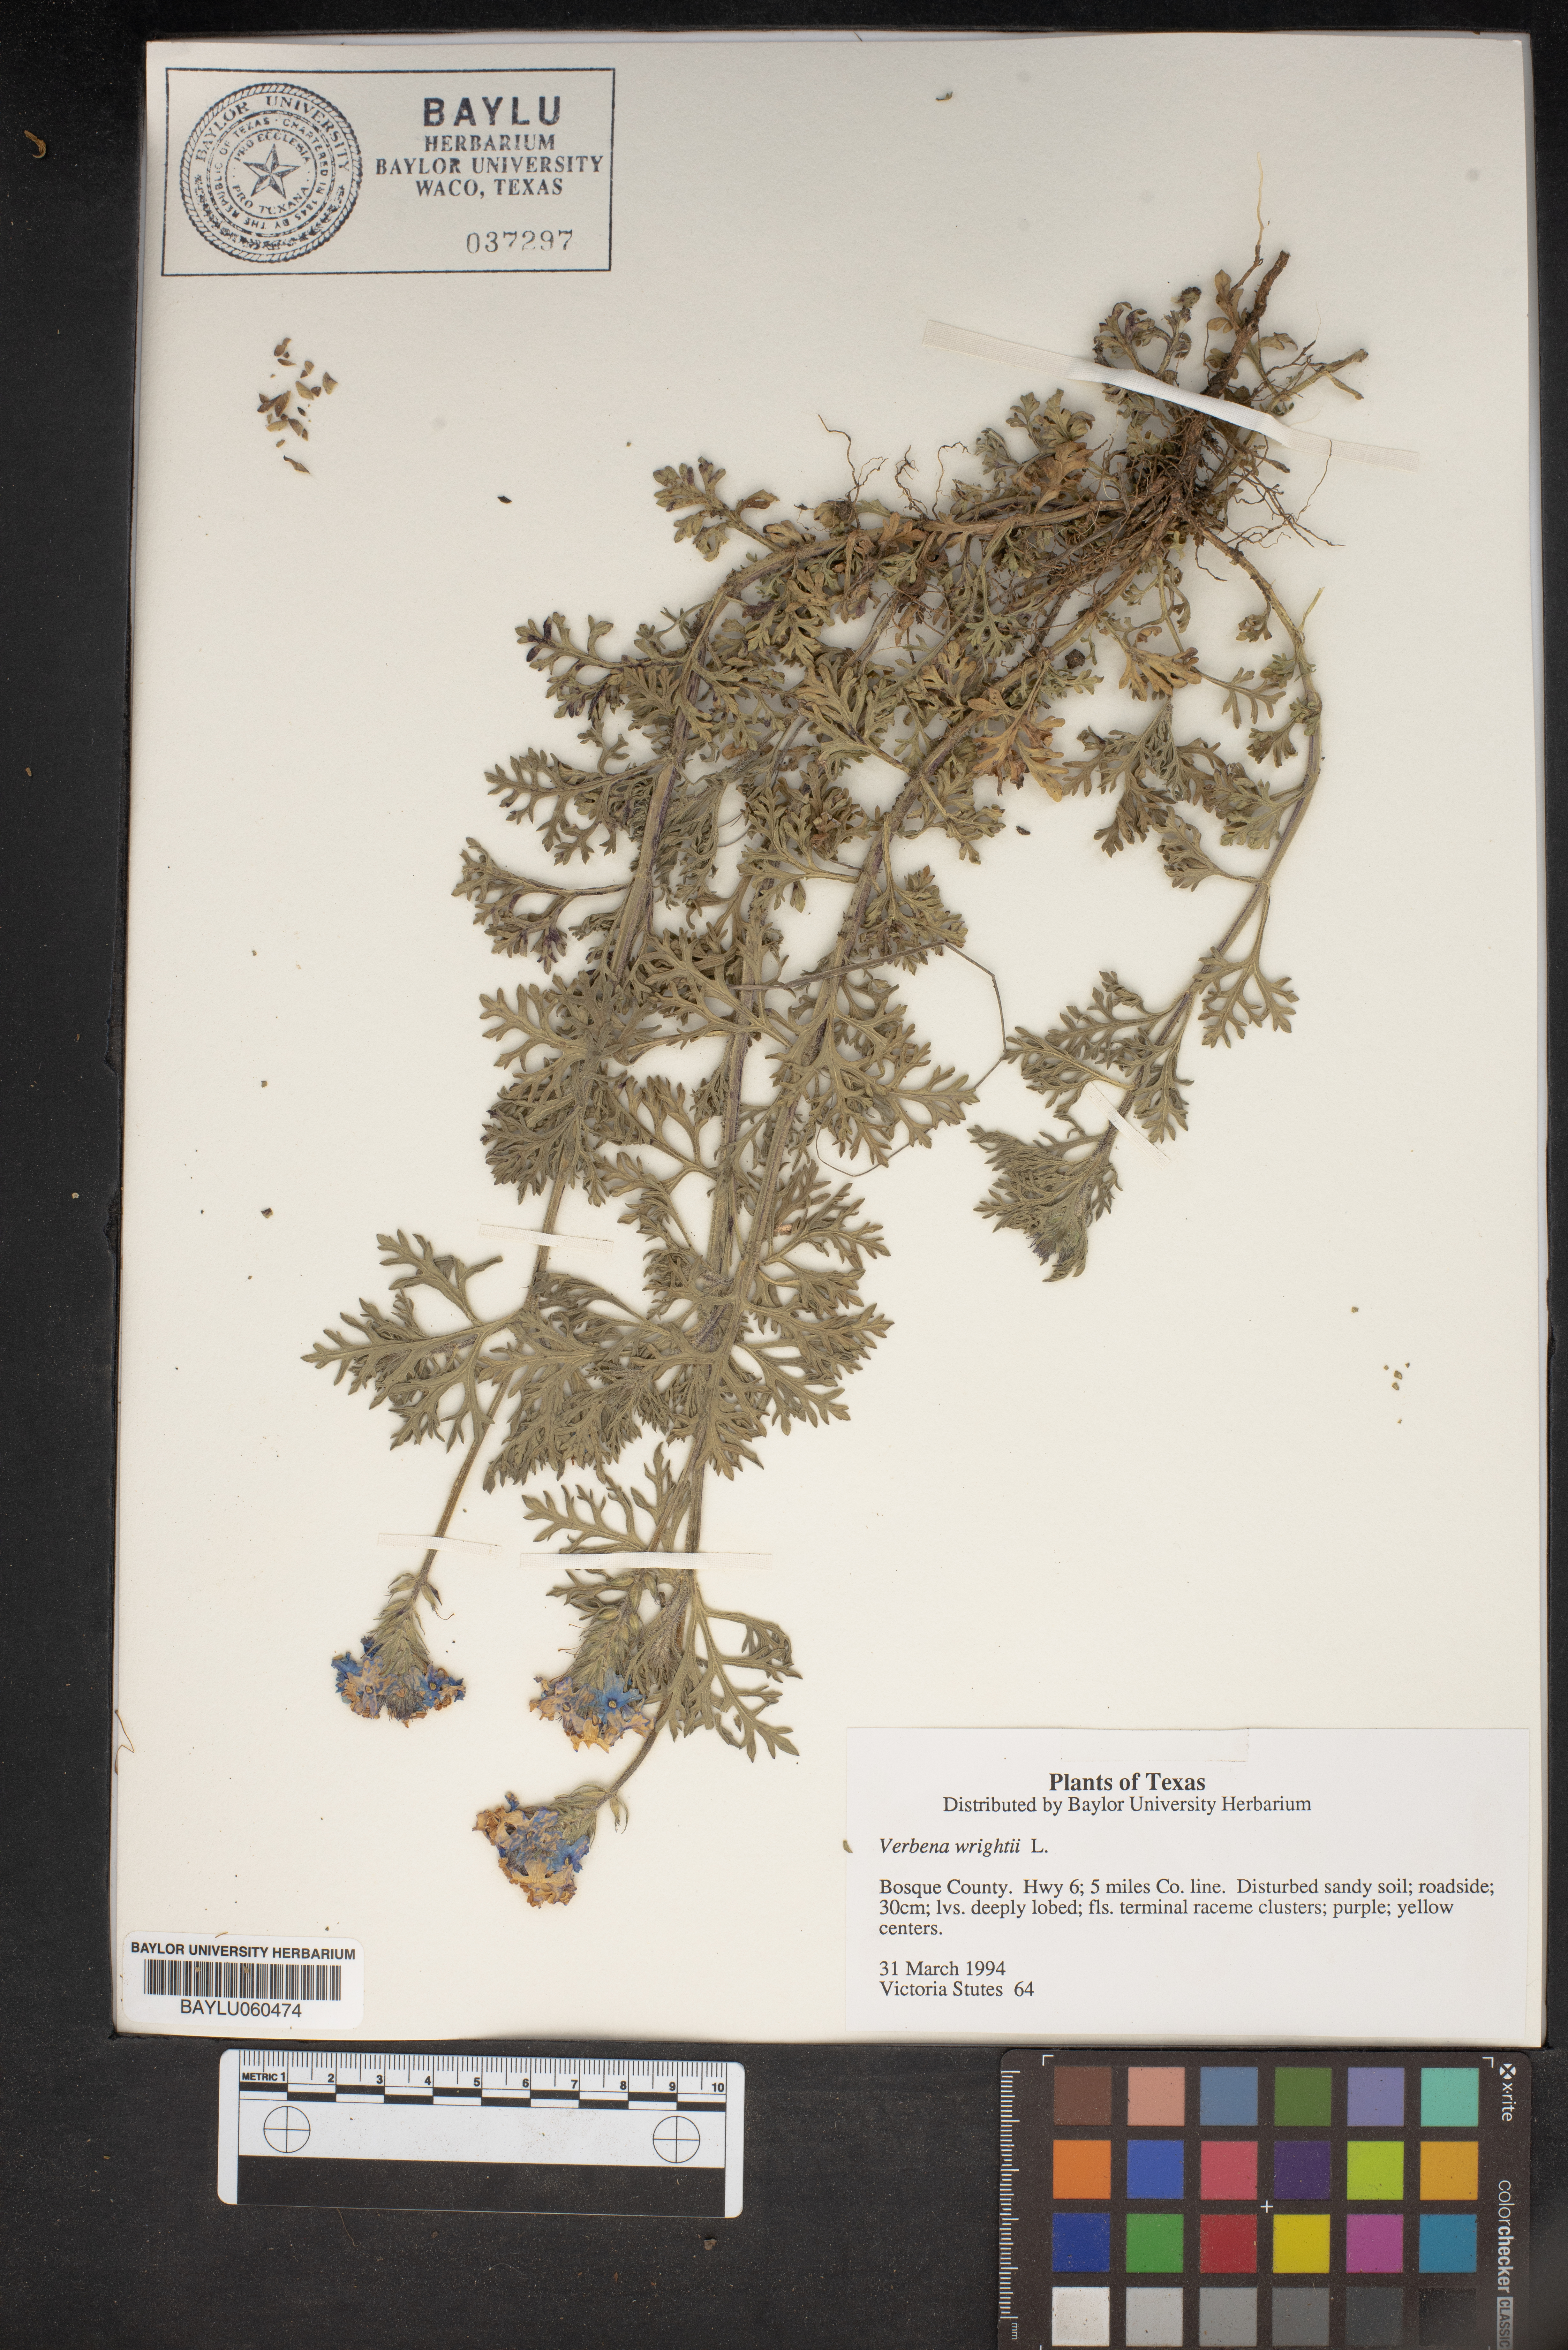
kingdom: Plantae
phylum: Tracheophyta
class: Magnoliopsida
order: Lamiales
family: Verbenaceae
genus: Verbena
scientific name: Verbena bipinnatifida
